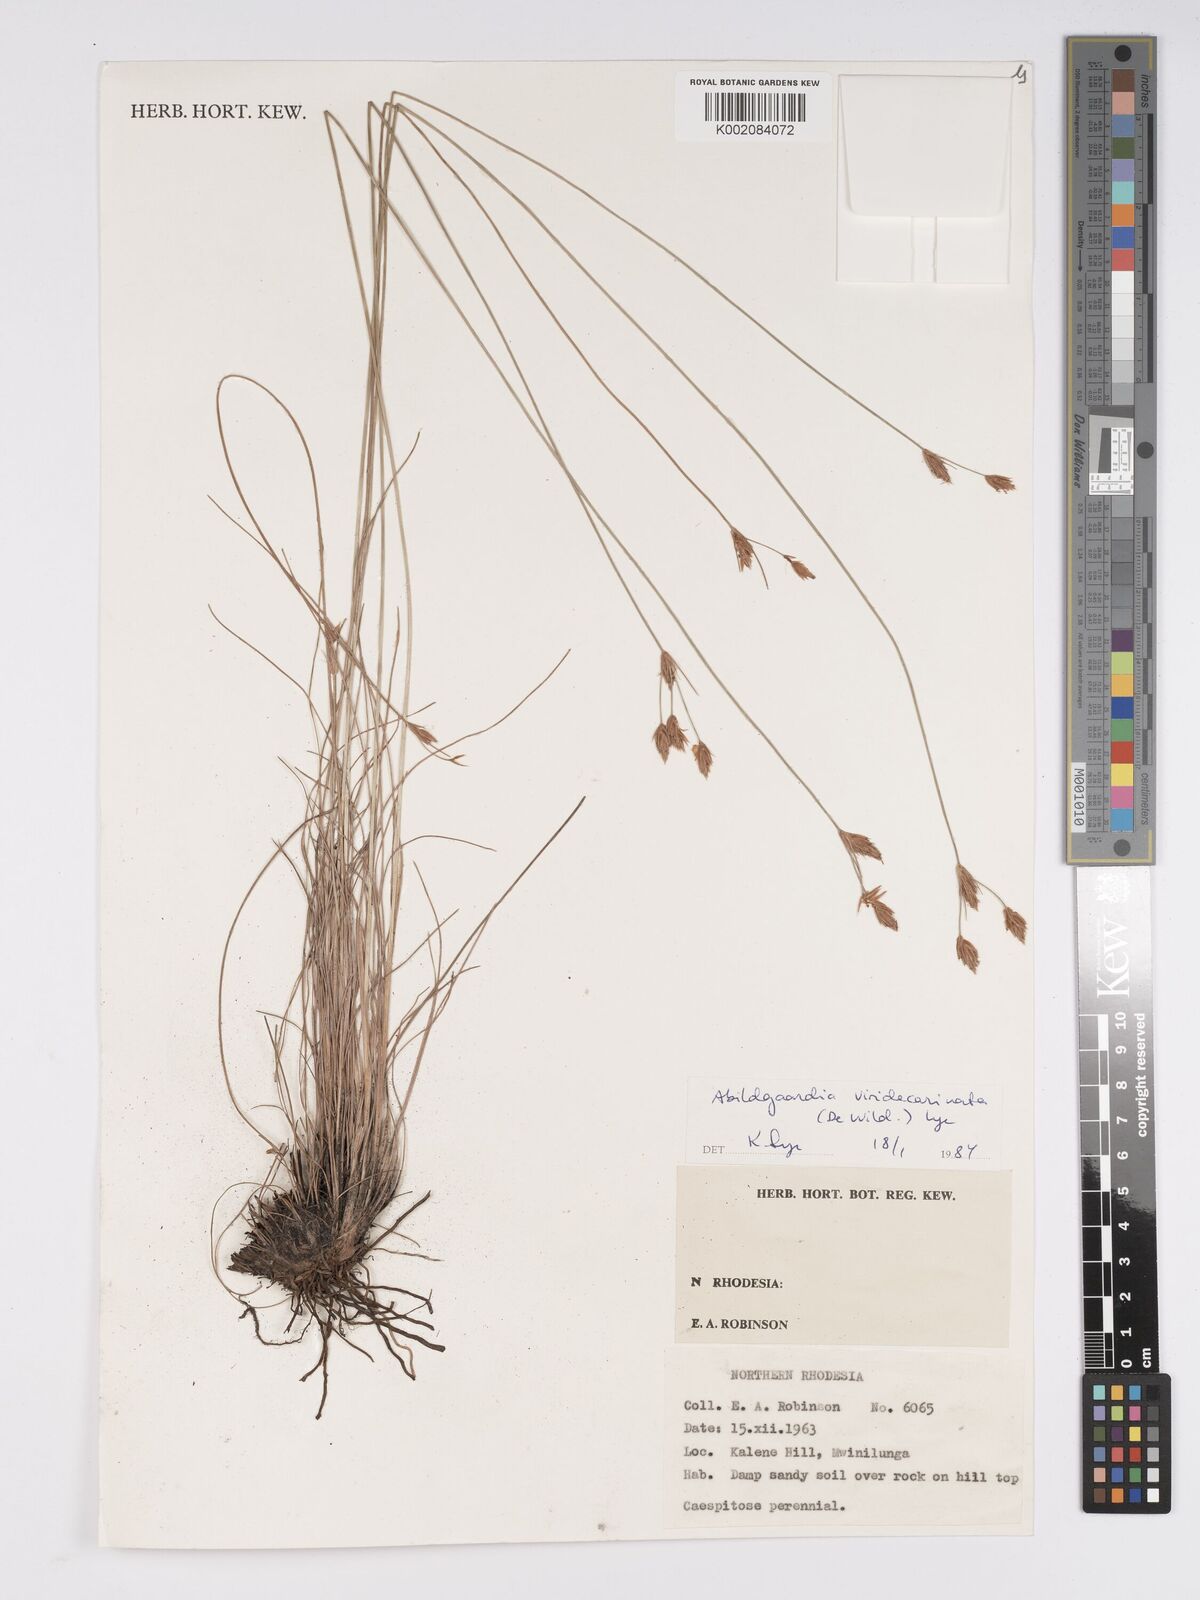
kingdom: Plantae
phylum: Tracheophyta
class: Liliopsida
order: Poales
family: Cyperaceae
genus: Bulbostylis
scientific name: Bulbostylis viridecarinata
